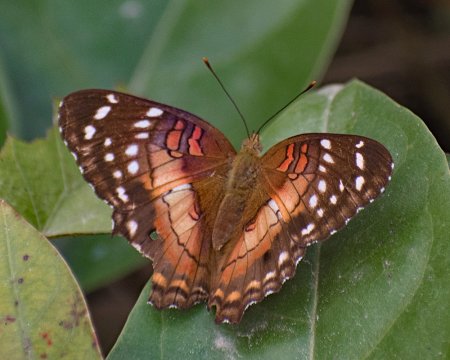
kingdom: Animalia
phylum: Arthropoda
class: Insecta
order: Lepidoptera
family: Nymphalidae
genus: Anartia
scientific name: Anartia amathea
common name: Red Peacock
